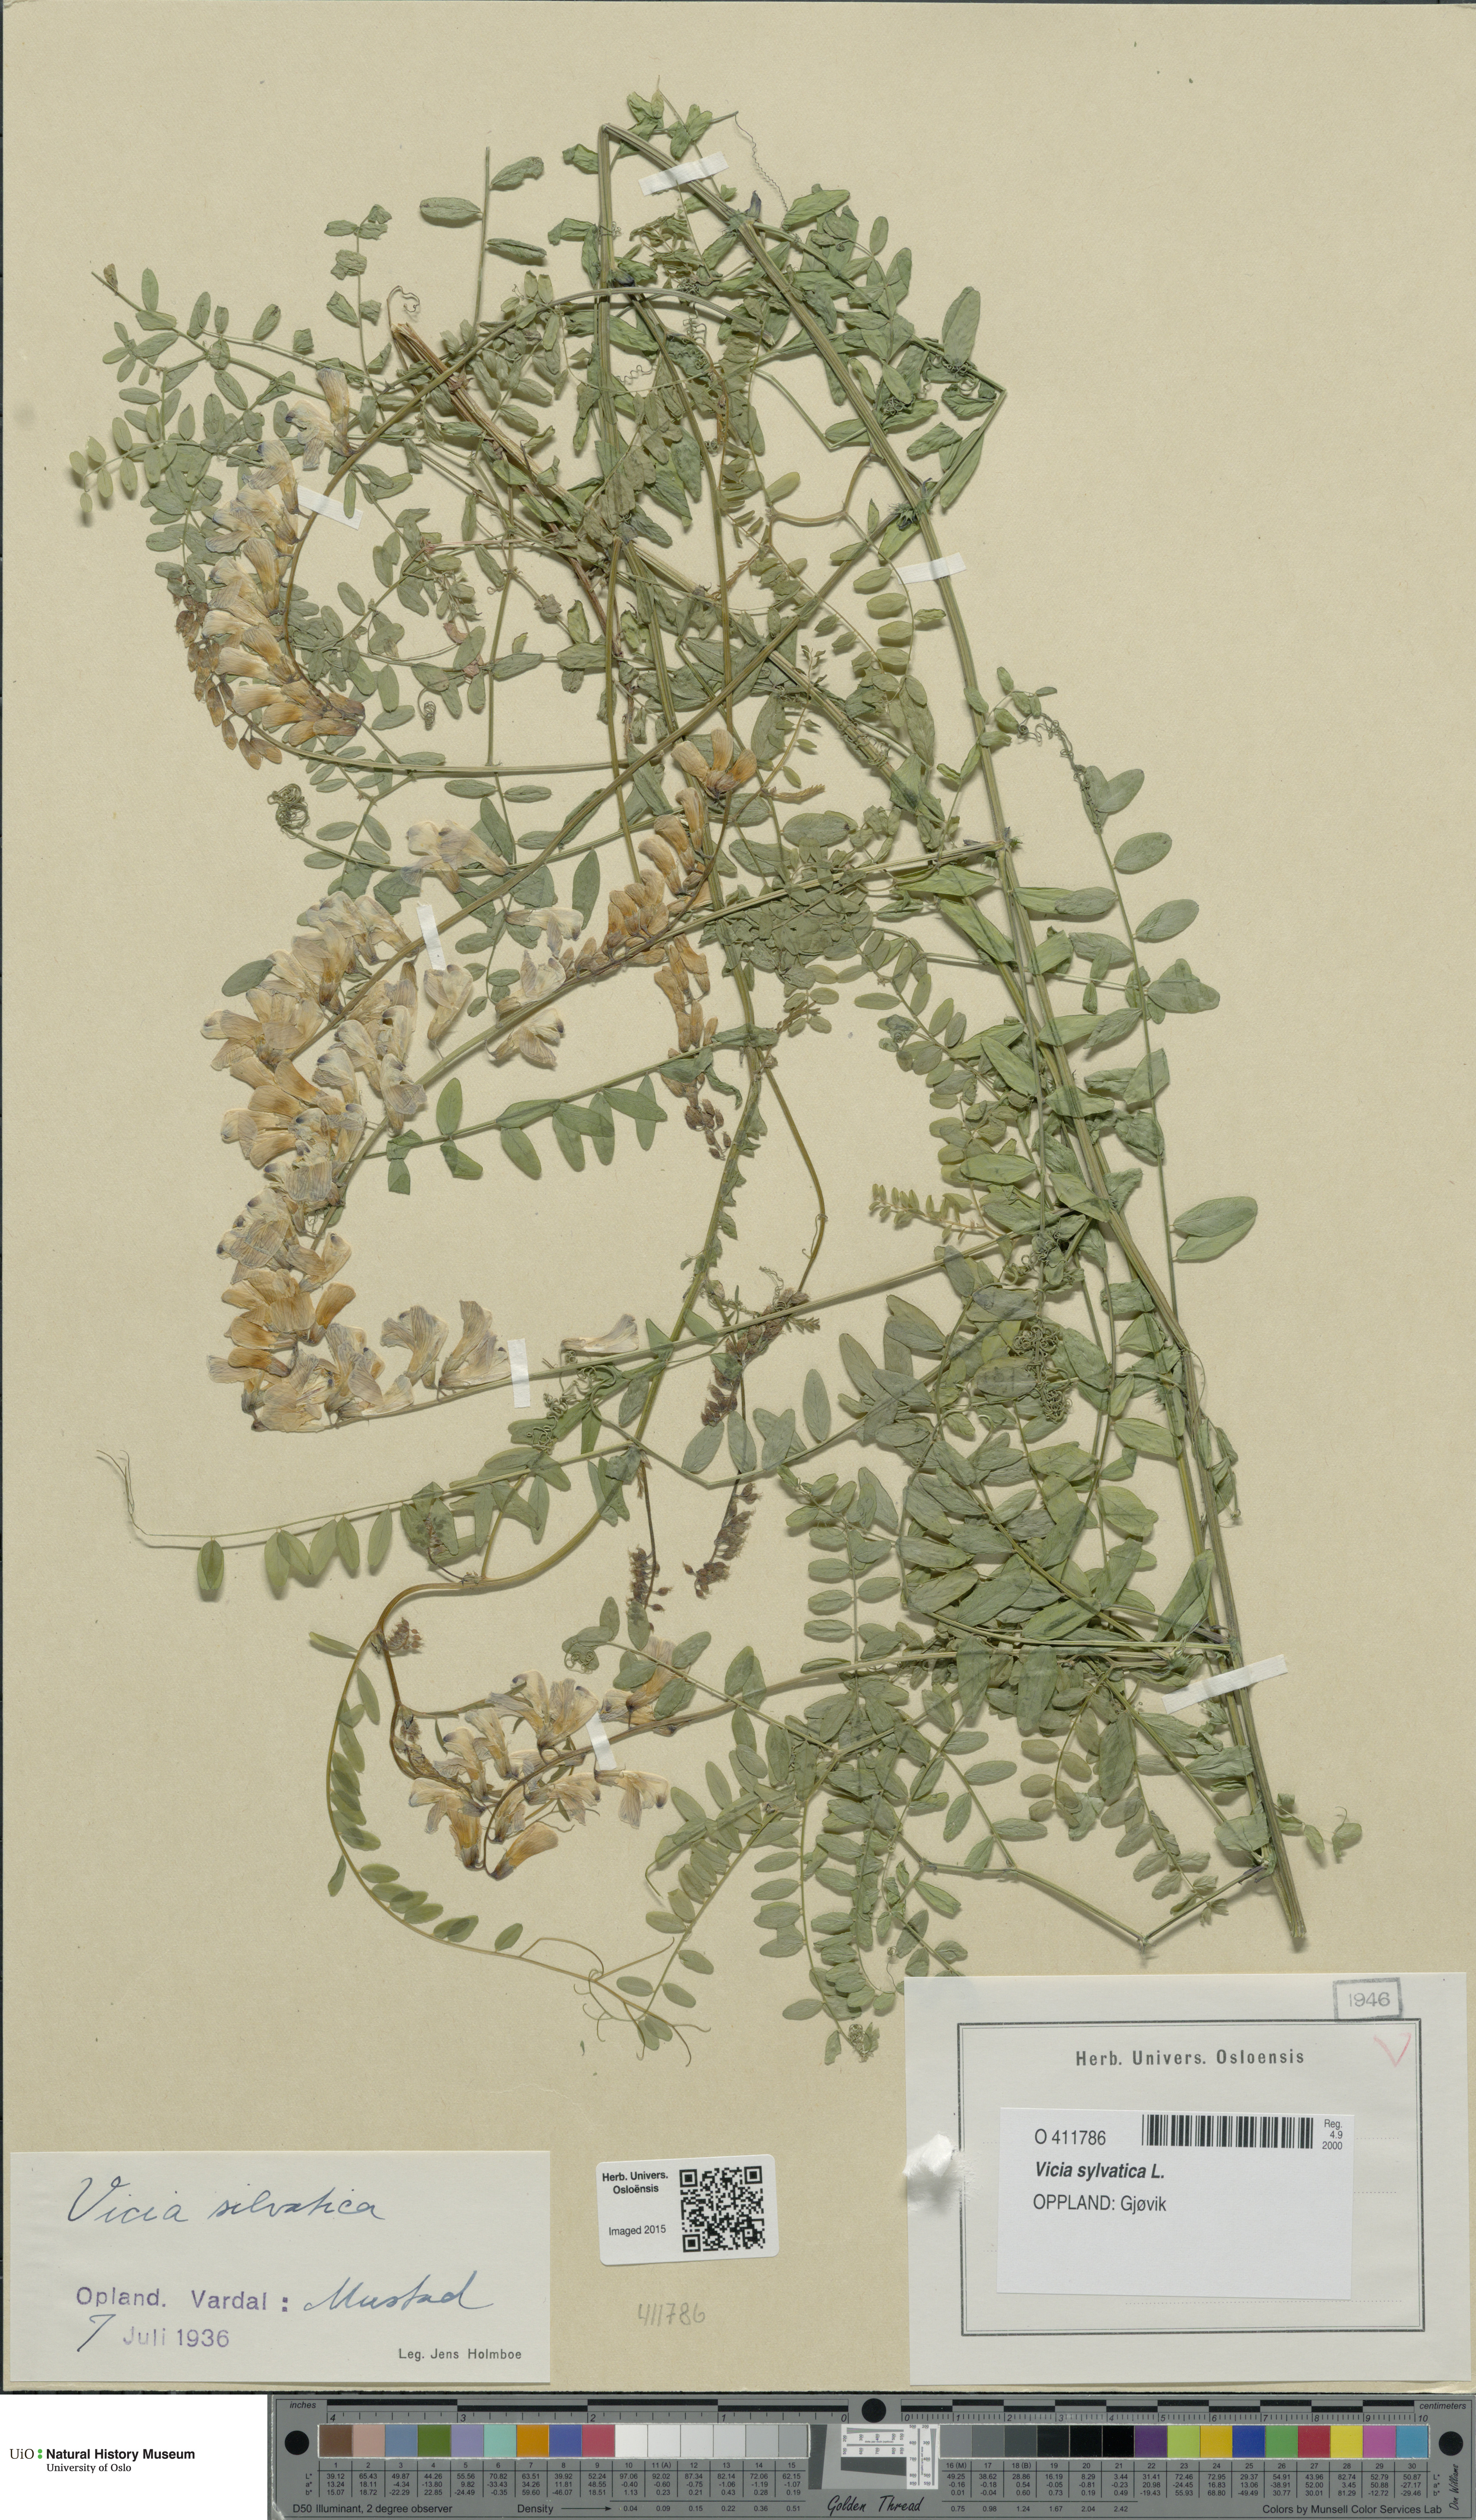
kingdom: Plantae
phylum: Tracheophyta
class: Magnoliopsida
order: Fabales
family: Fabaceae
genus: Vicia
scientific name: Vicia sylvatica
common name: Wood vetch
